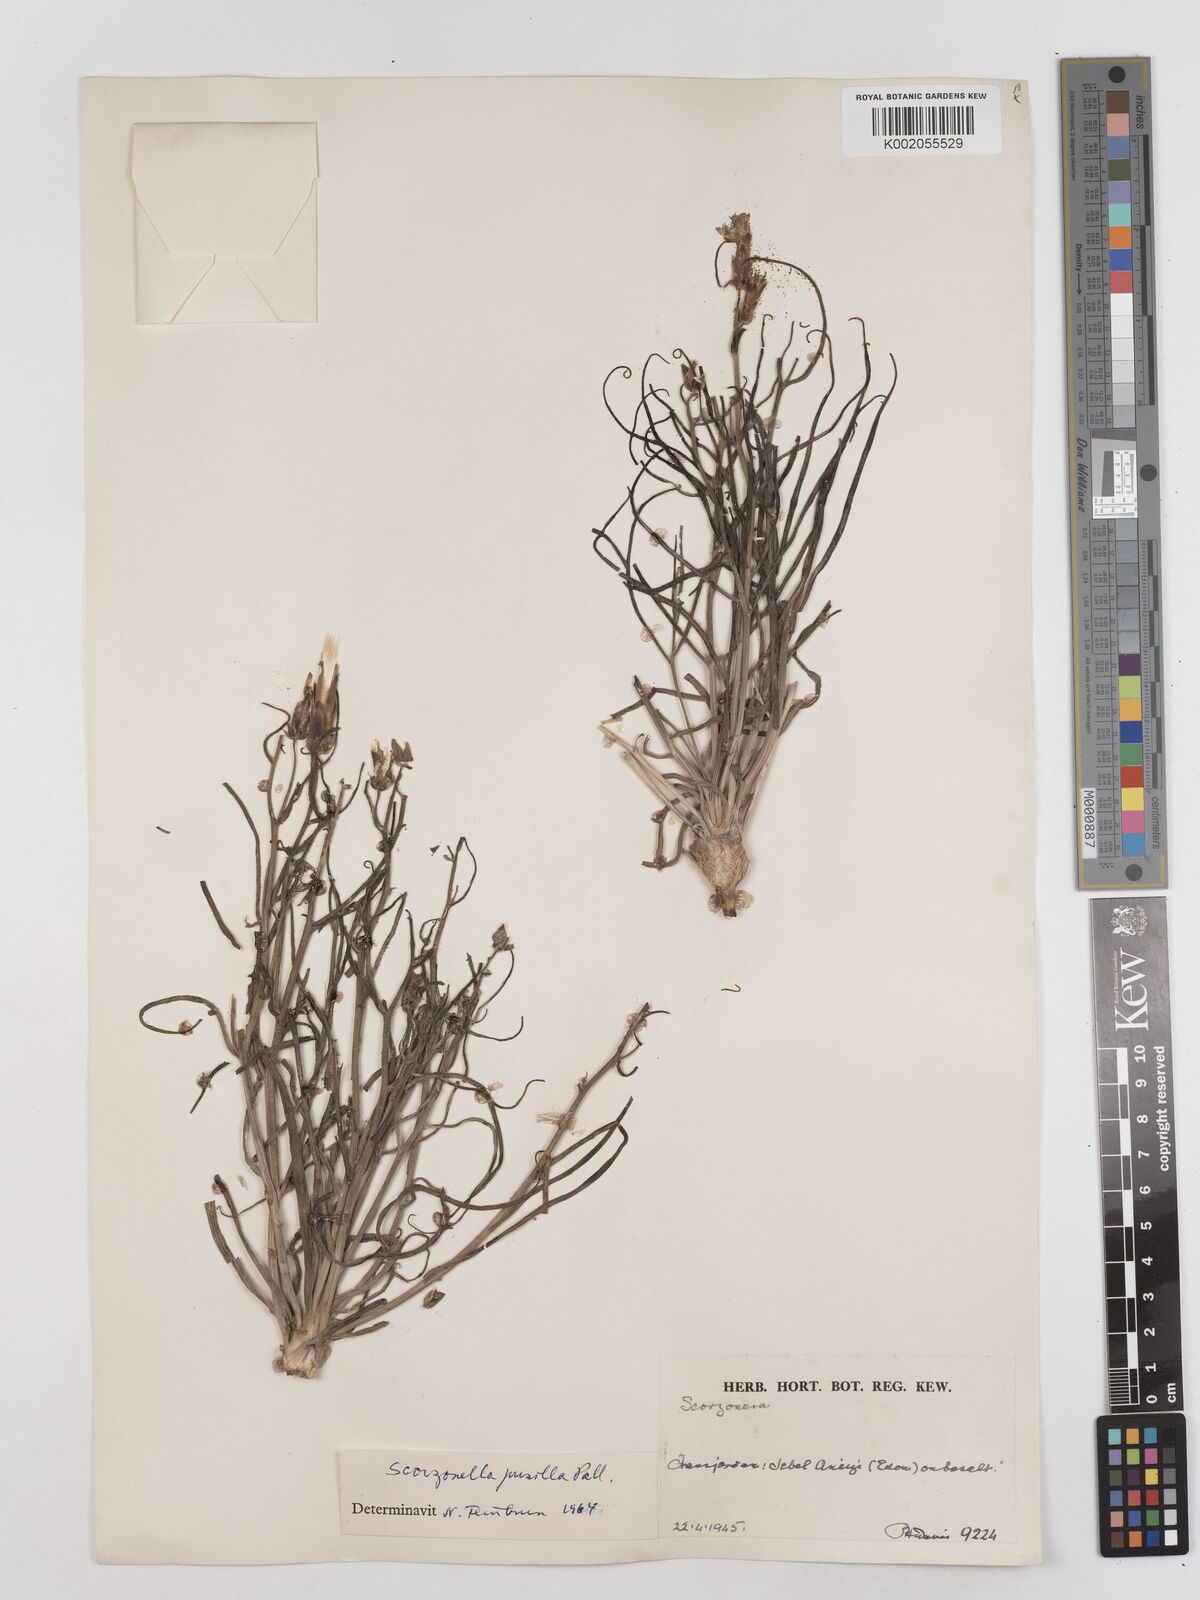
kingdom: Plantae
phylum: Tracheophyta
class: Magnoliopsida
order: Asterales
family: Asteraceae
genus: Takhtajaniantha
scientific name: Takhtajaniantha pusilla
